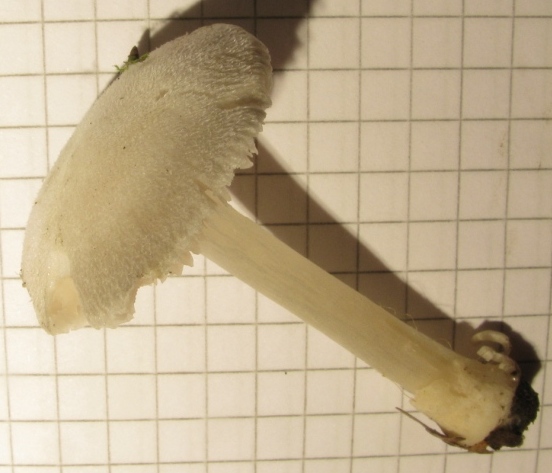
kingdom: Fungi
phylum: Basidiomycota
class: Agaricomycetes
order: Agaricales
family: Pluteaceae
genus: Volvariella
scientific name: Volvariella hypopithys
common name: dunstokket posesvamp
